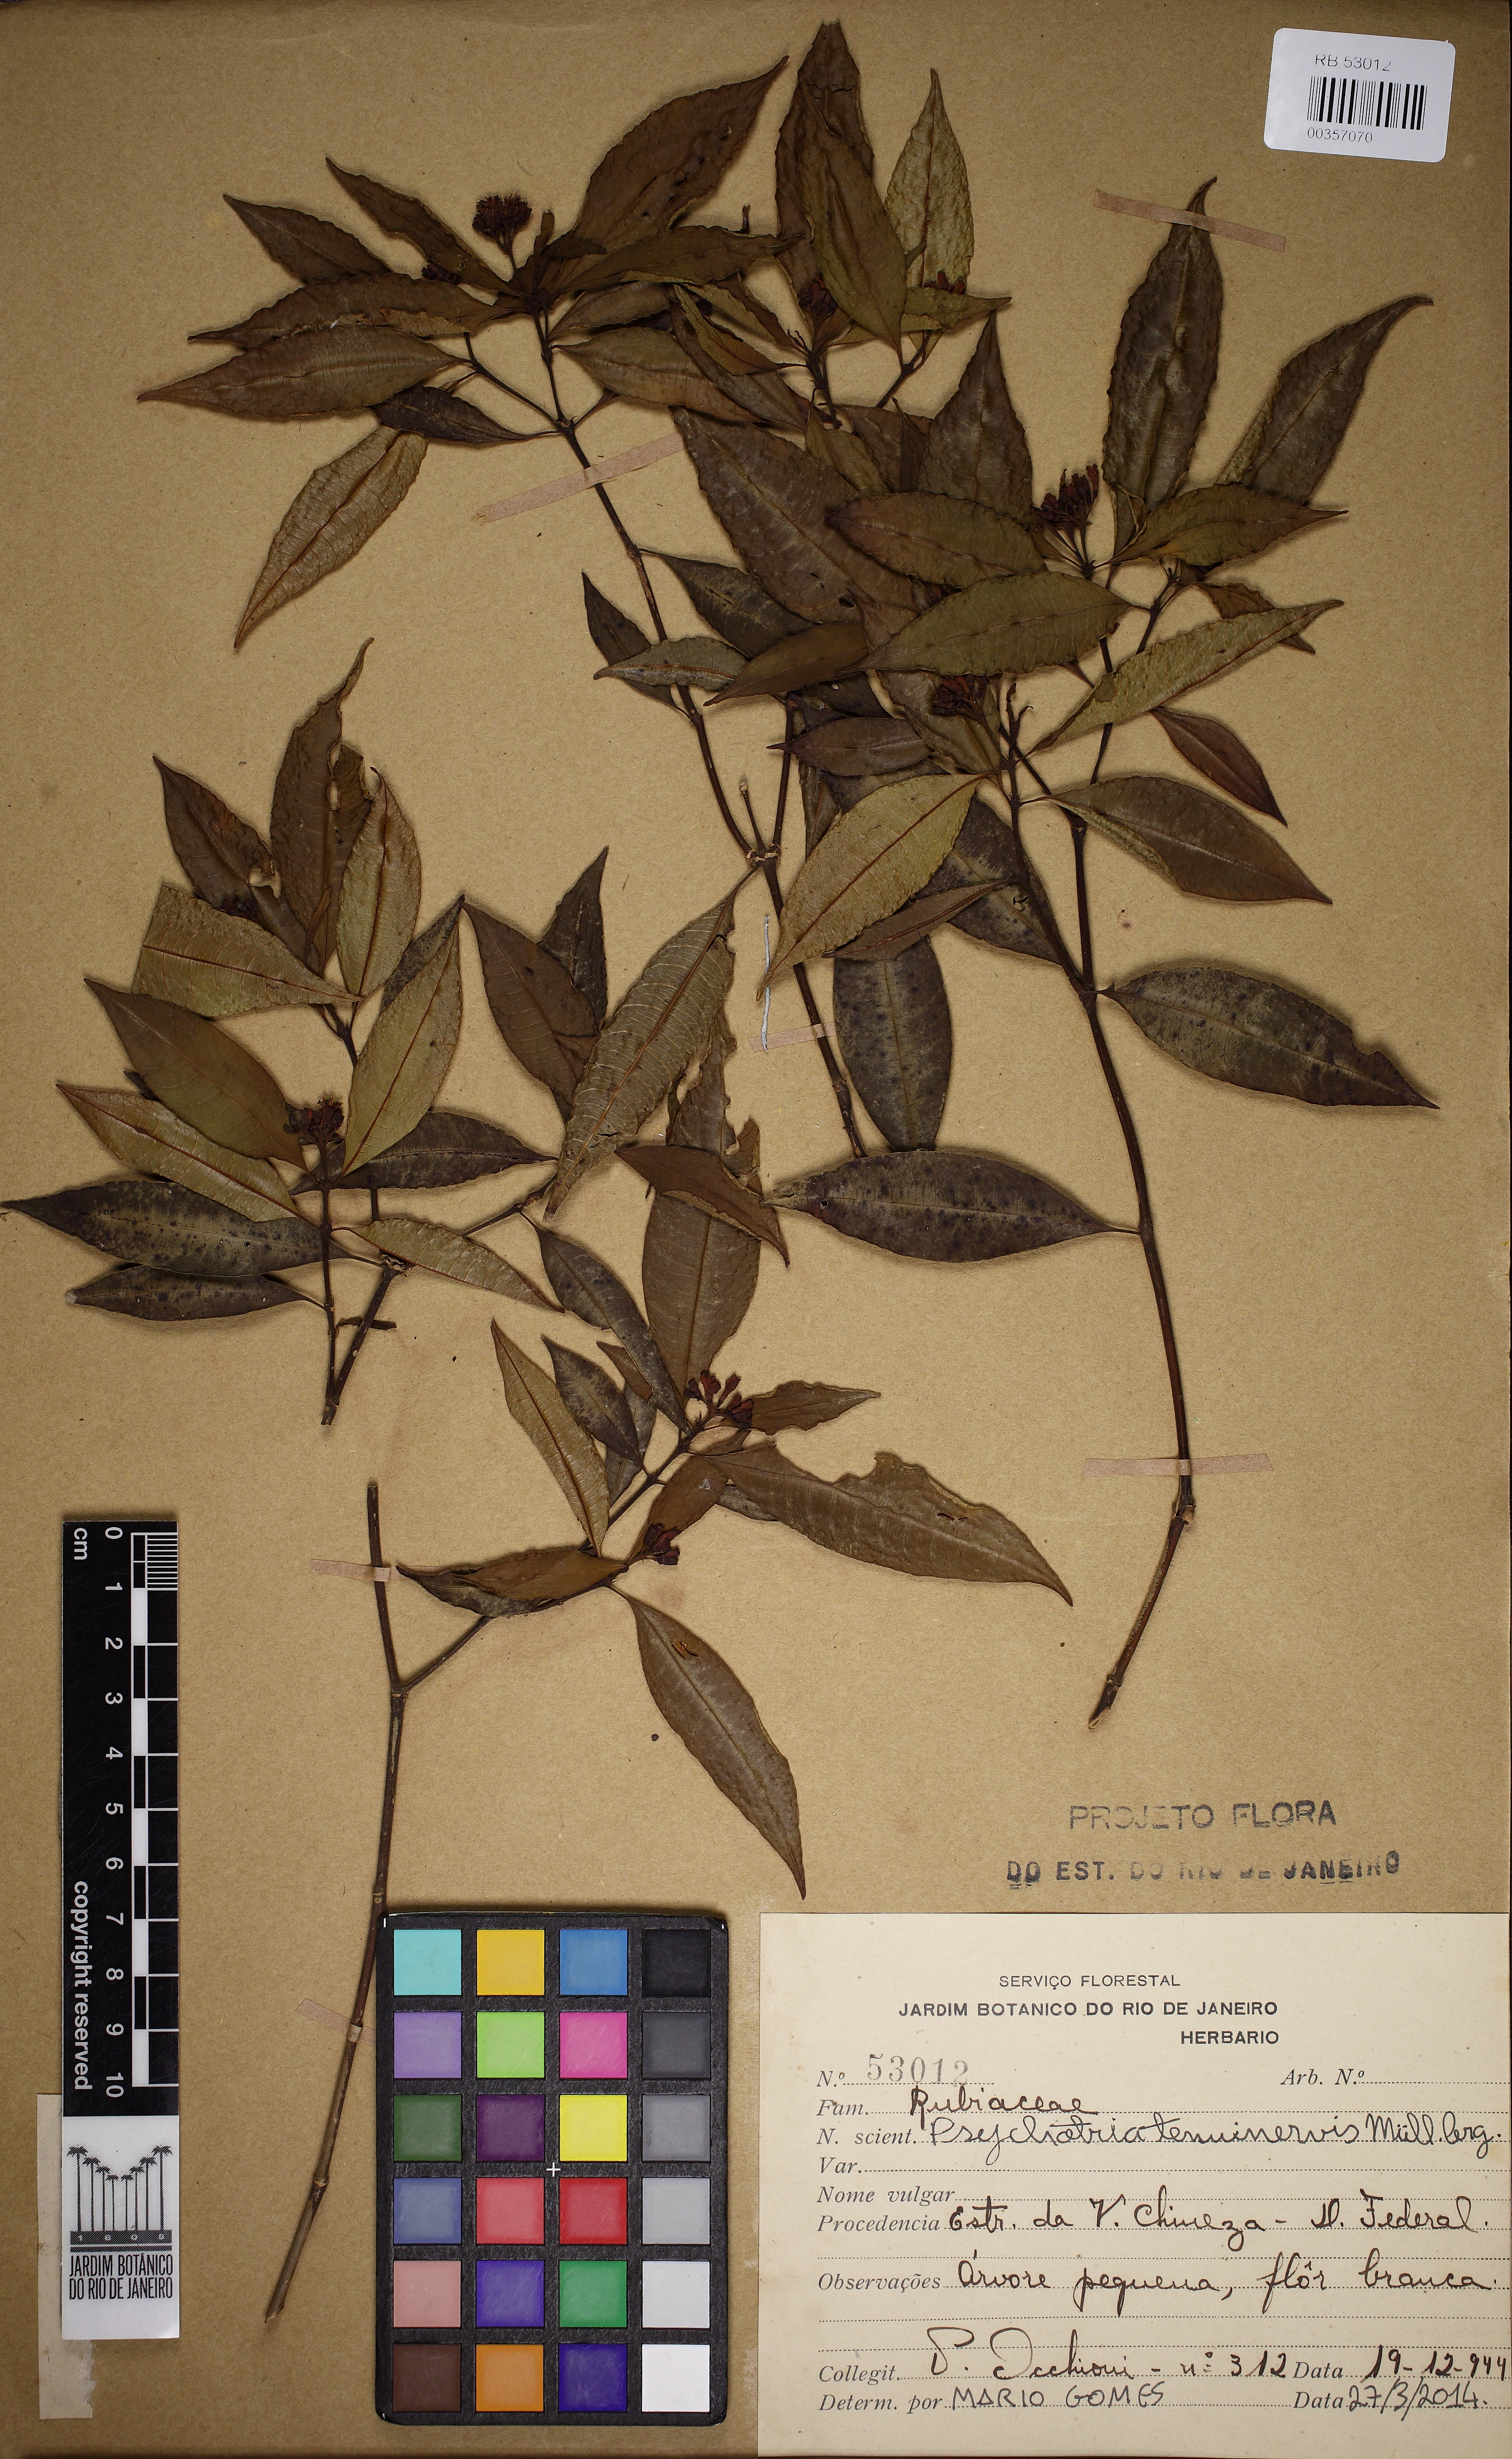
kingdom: Plantae
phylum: Tracheophyta
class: Magnoliopsida
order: Gentianales
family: Rubiaceae
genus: Psychotria
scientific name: Psychotria tenuinervis
